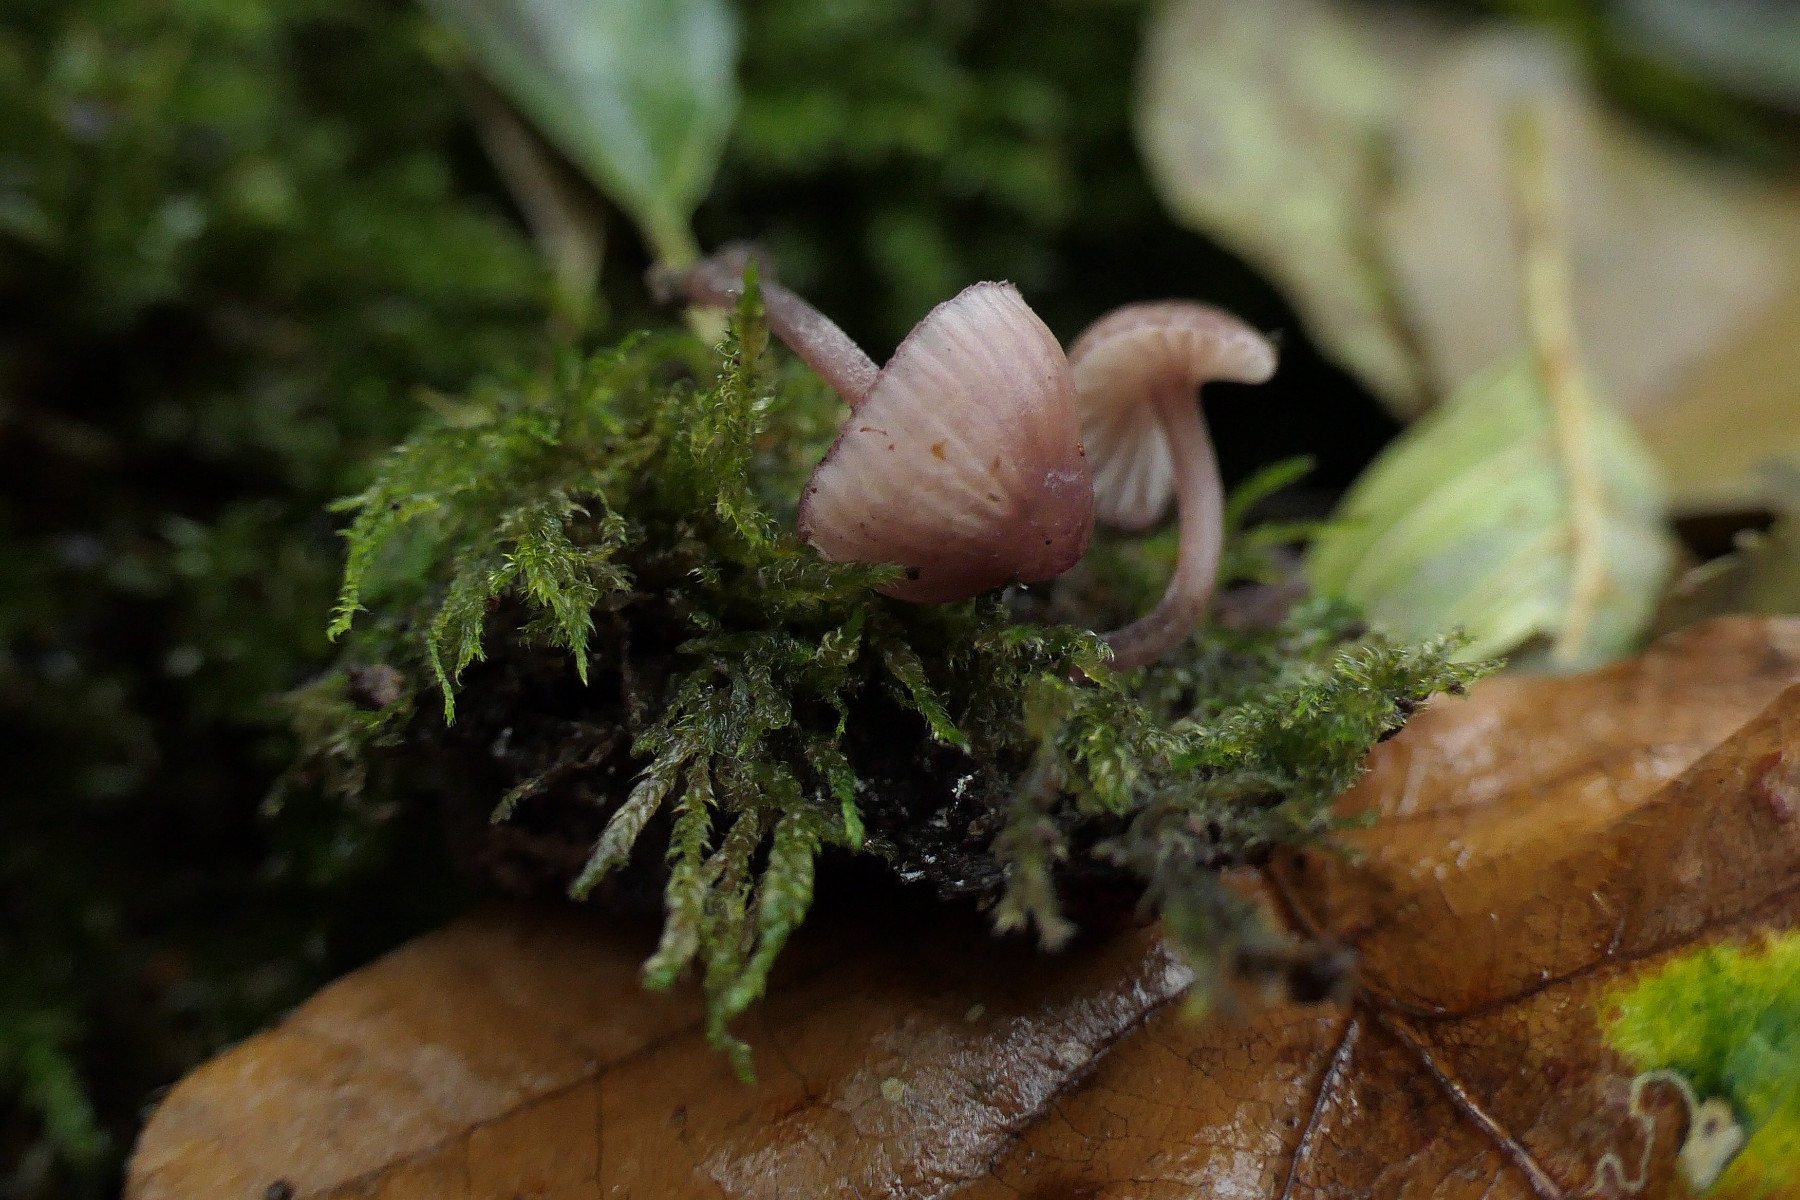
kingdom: Fungi
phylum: Basidiomycota
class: Agaricomycetes
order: Agaricales
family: Mycenaceae
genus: Mycena
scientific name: Mycena sanguinolenta
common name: rødmælket huesvamp
